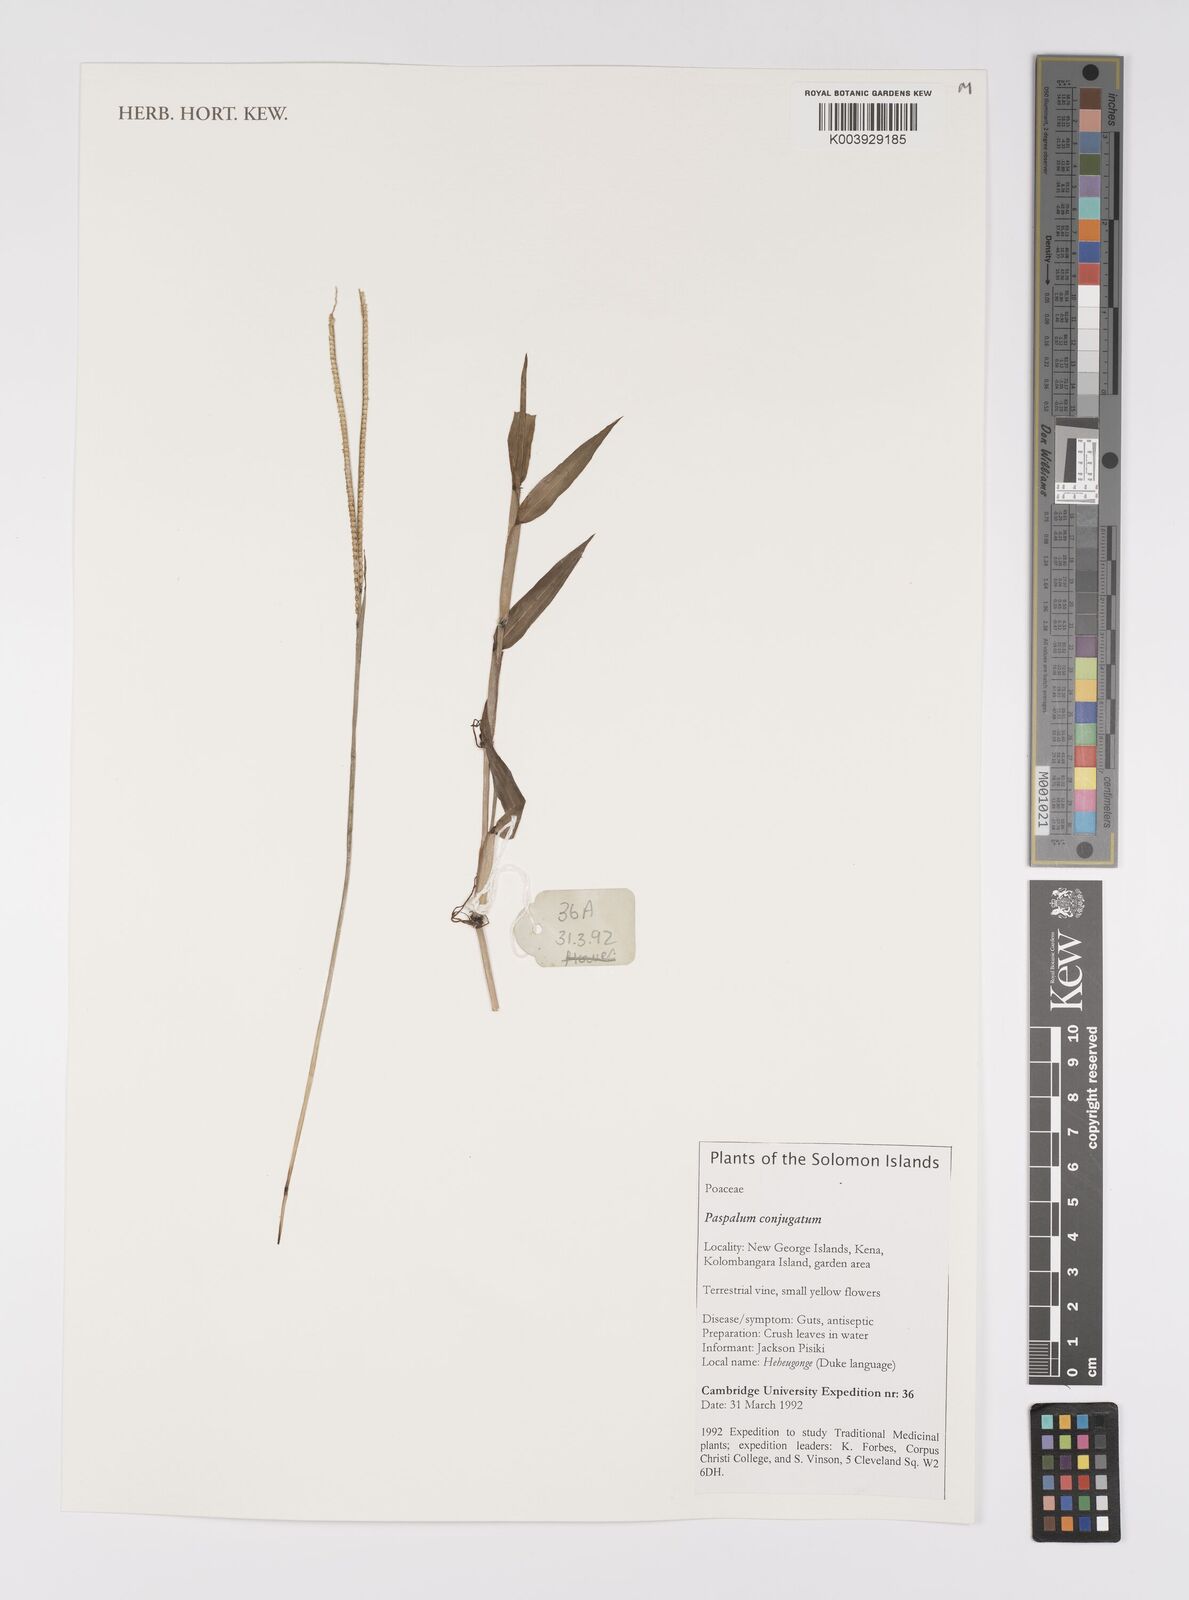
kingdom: Plantae
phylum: Tracheophyta
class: Liliopsida
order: Poales
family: Poaceae
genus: Paspalum
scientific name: Paspalum conjugatum
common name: Hilograss
